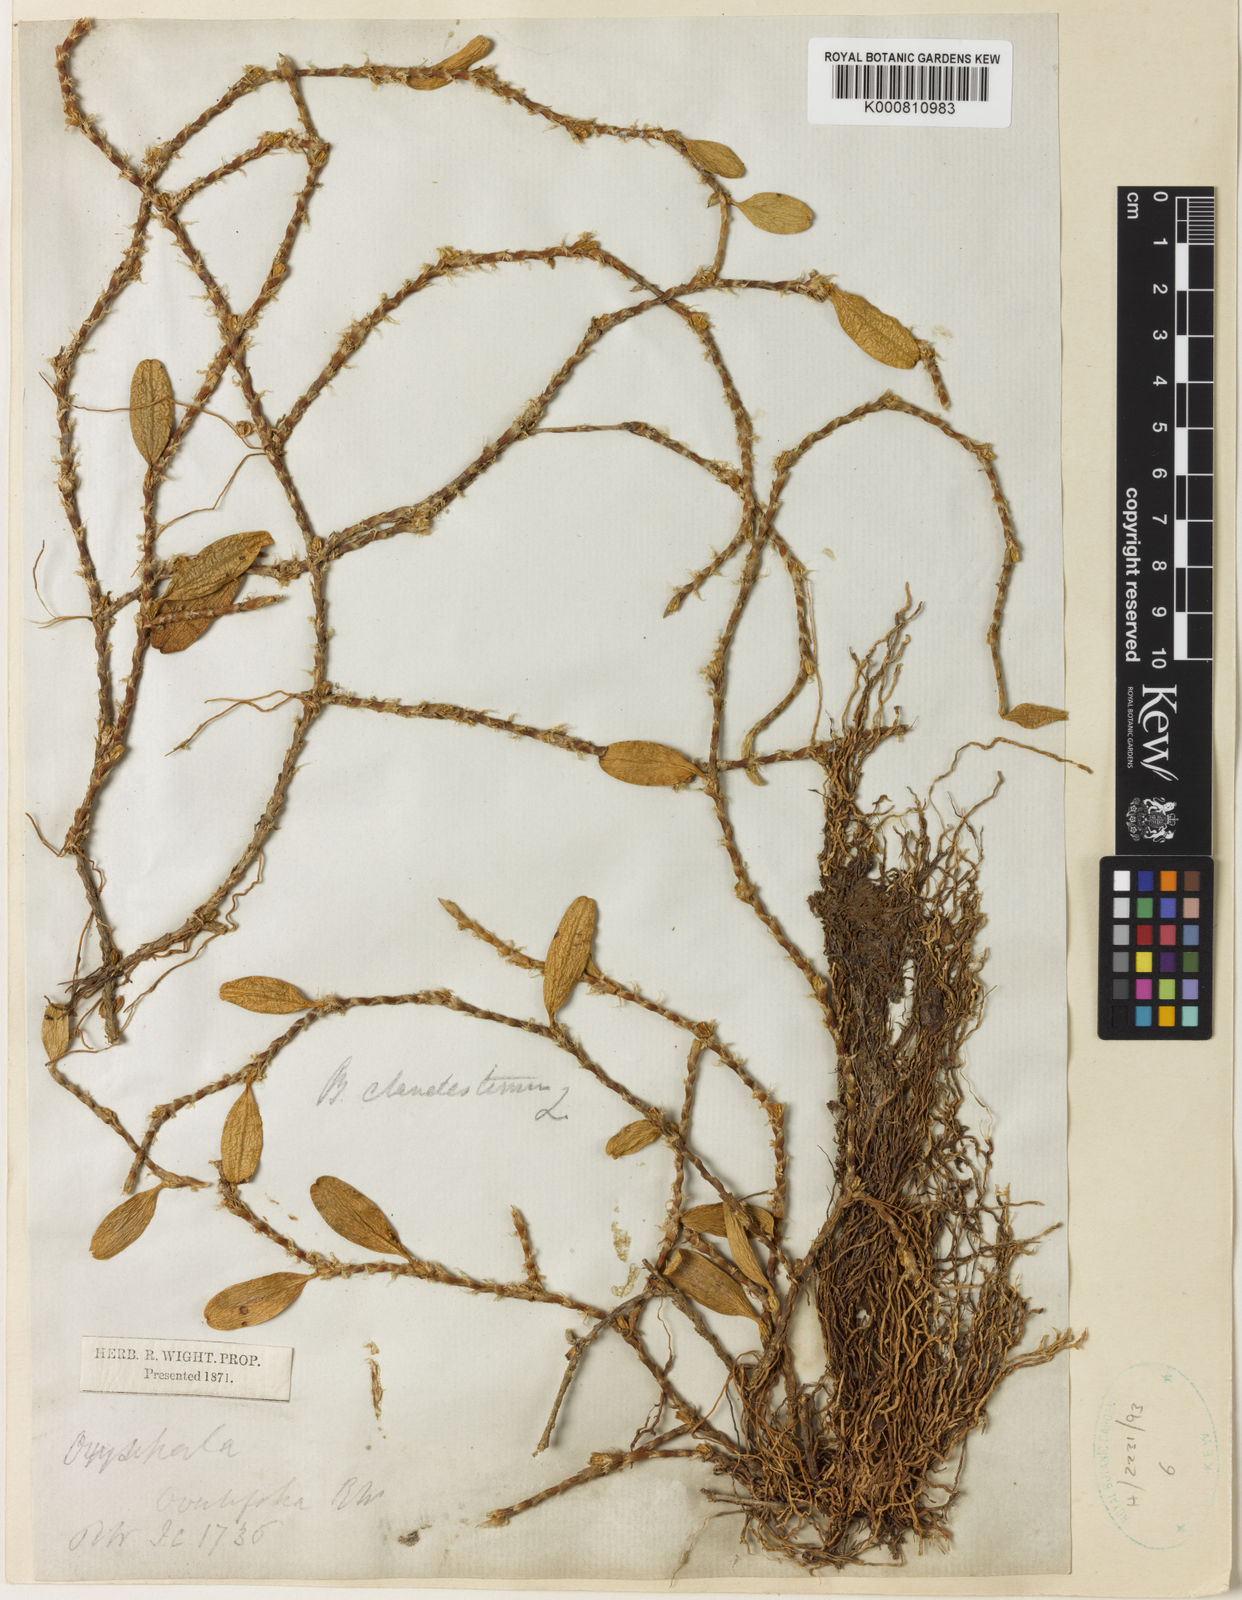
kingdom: Plantae
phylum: Tracheophyta
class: Liliopsida
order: Asparagales
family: Orchidaceae
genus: Bulbophyllum
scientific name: Bulbophyllum clandestinum
